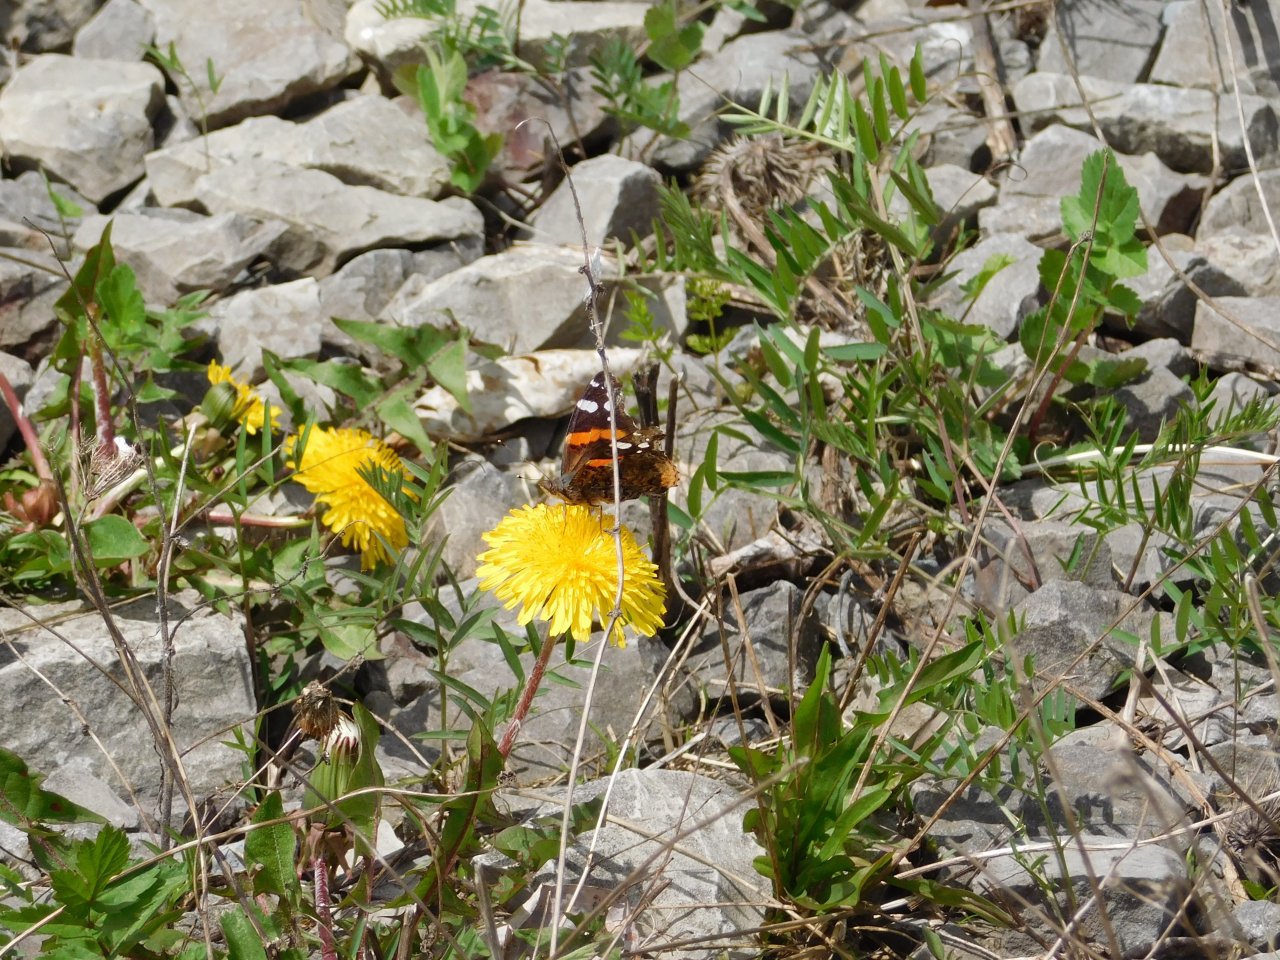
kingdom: Animalia
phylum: Arthropoda
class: Insecta
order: Lepidoptera
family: Nymphalidae
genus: Vanessa
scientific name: Vanessa atalanta
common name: Red Admiral
